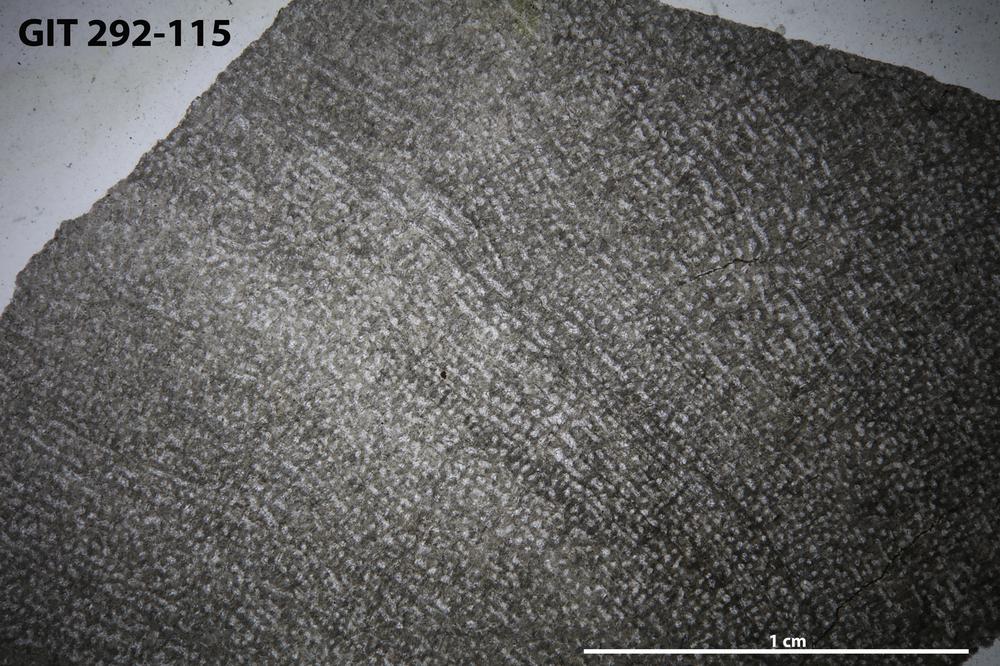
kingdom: Animalia
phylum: Porifera
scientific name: Porifera
